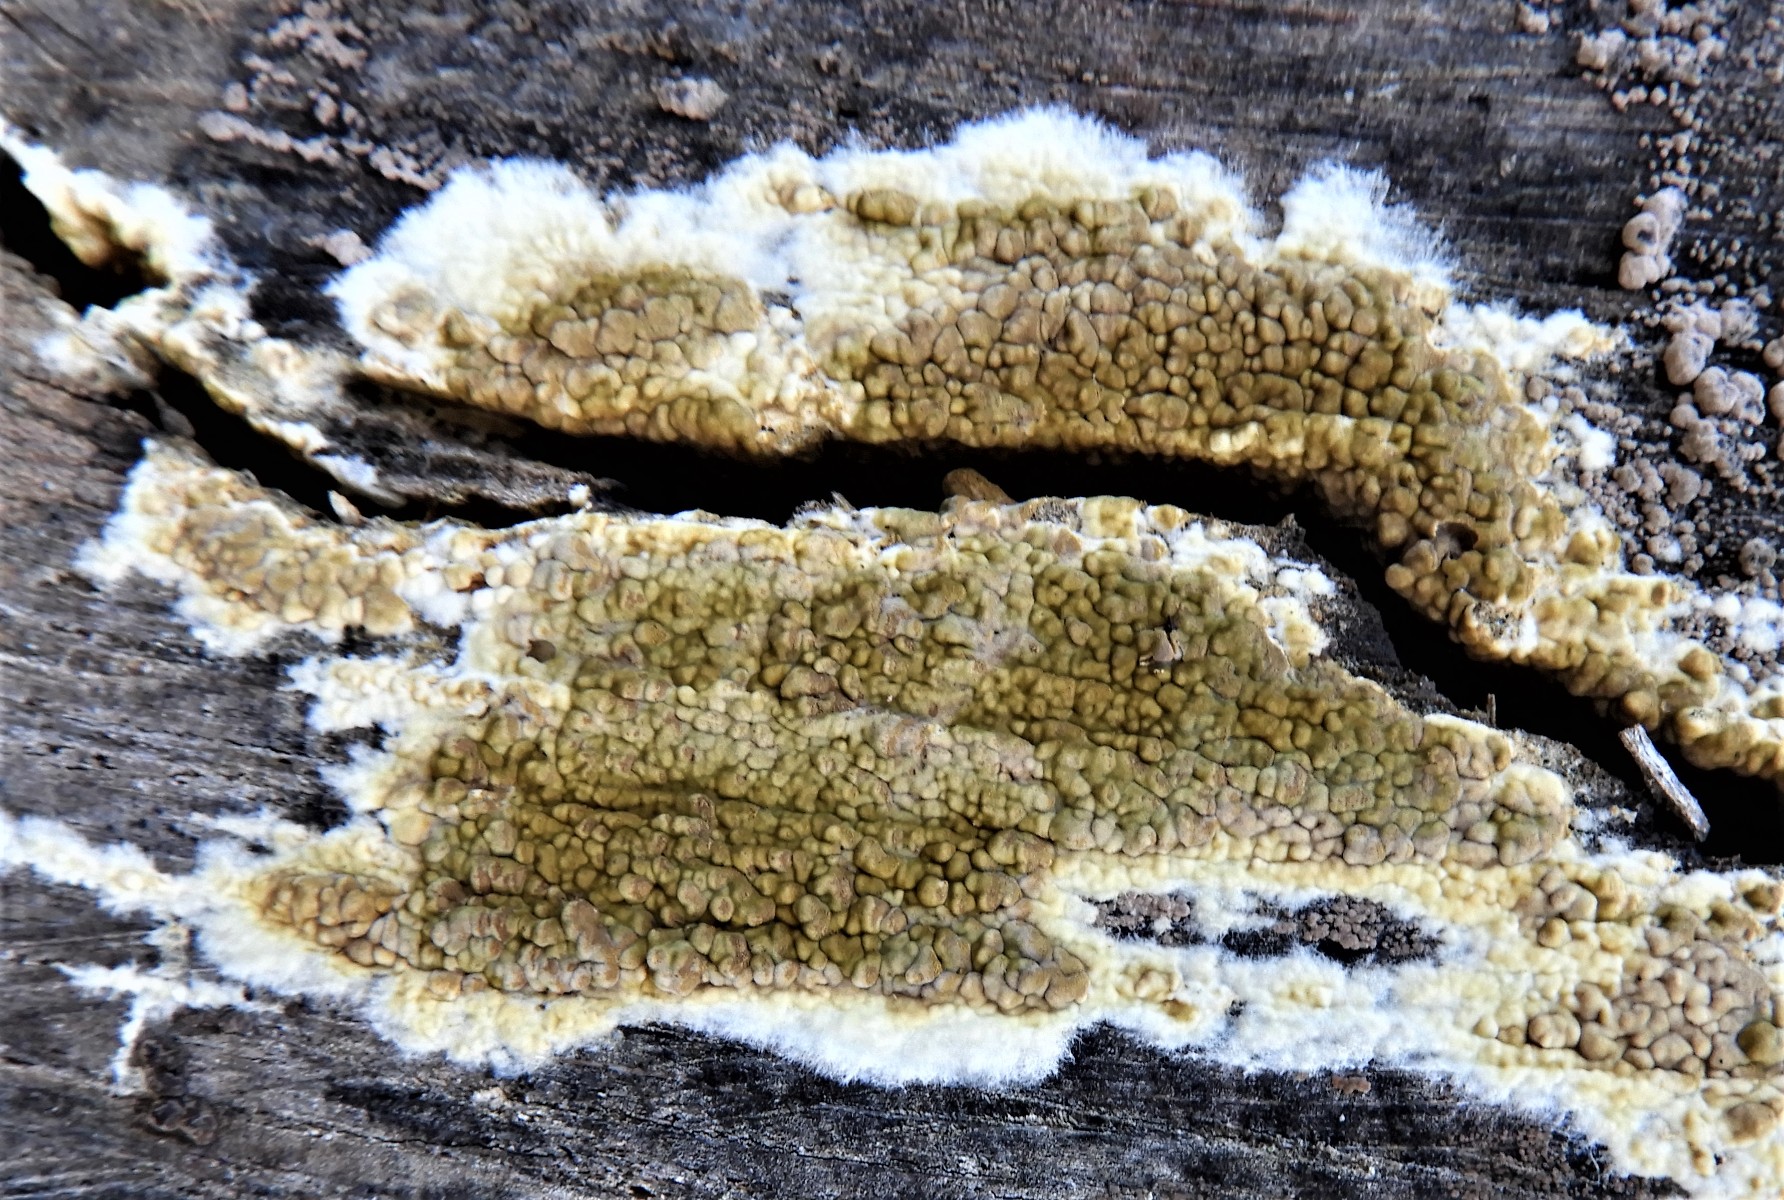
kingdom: Fungi
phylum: Basidiomycota
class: Agaricomycetes
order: Boletales
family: Coniophoraceae
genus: Coniophora
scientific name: Coniophora puteana
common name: gul tømmersvamp
